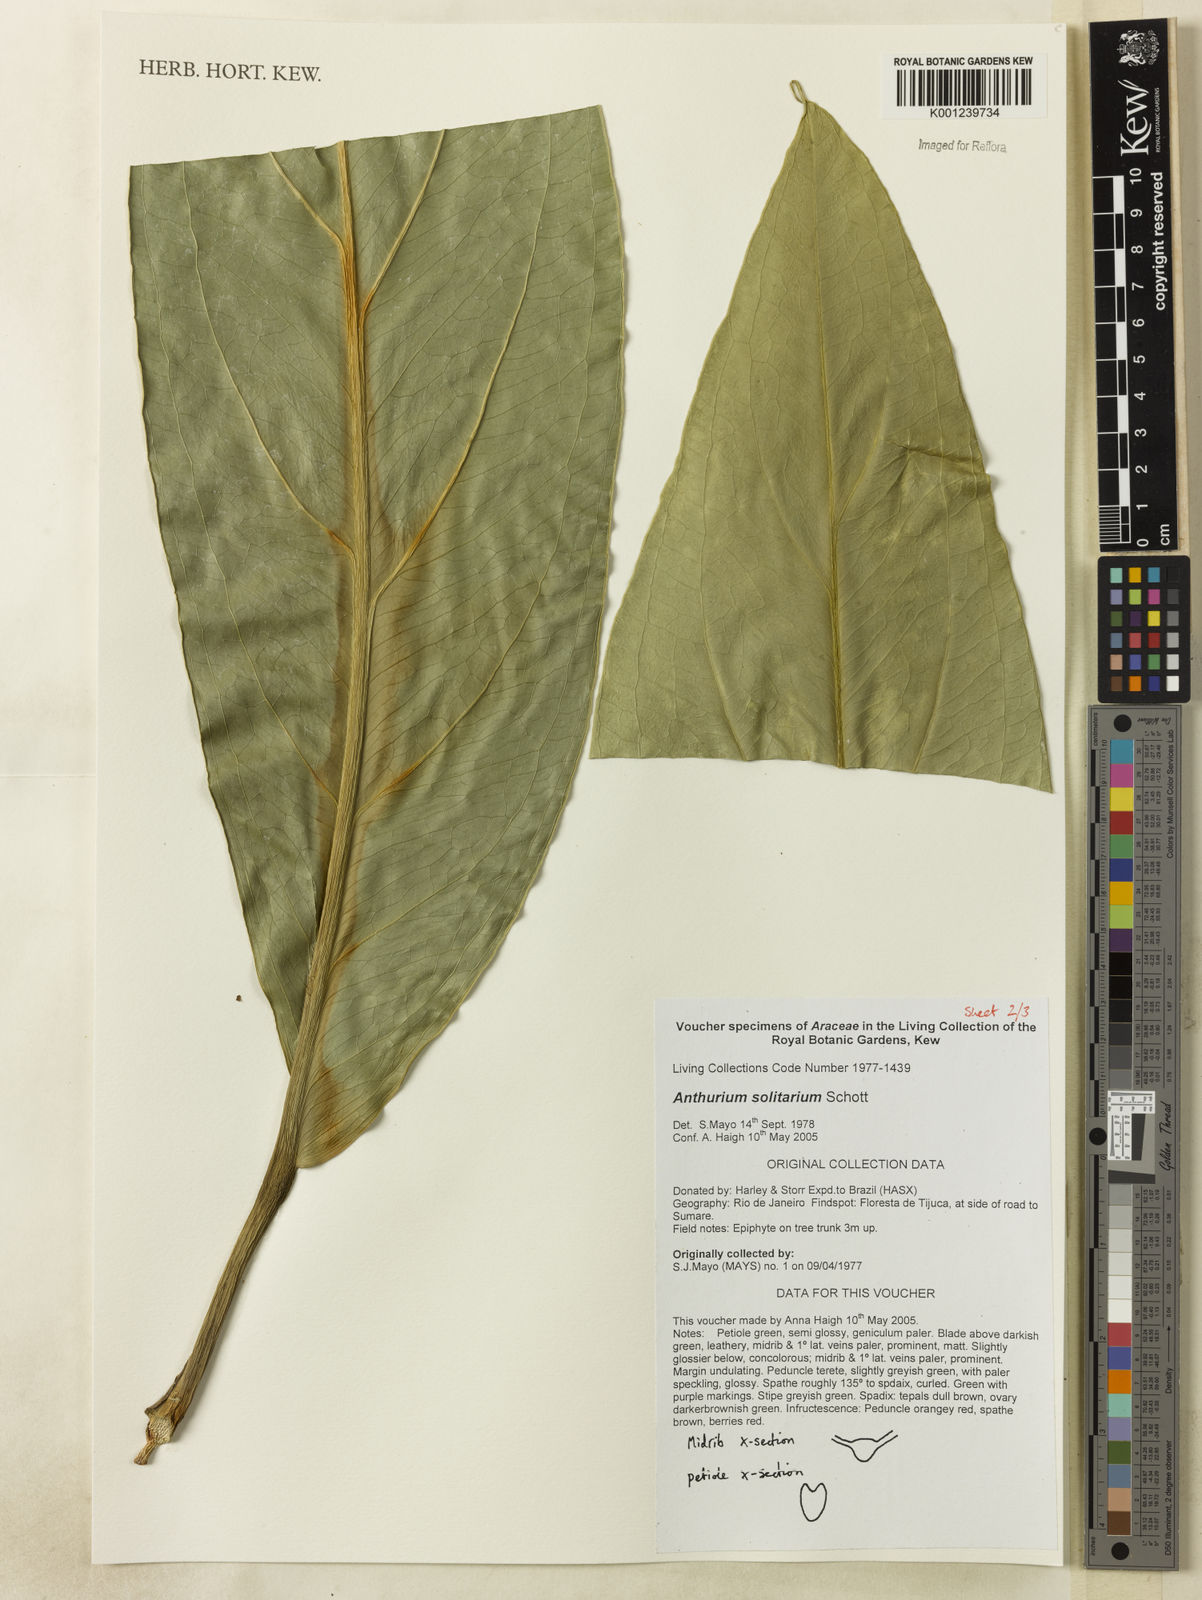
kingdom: Plantae
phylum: Tracheophyta
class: Liliopsida
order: Alismatales
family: Araceae
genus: Anthurium
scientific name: Anthurium solitarium
